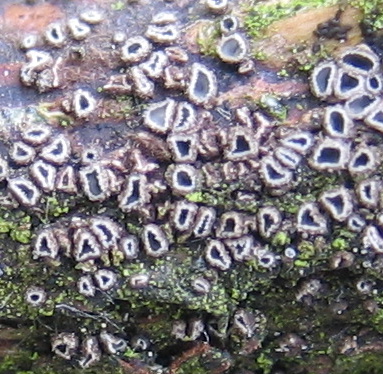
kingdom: Fungi
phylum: Ascomycota
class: Leotiomycetes
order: Helotiales
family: Mollisiaceae
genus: Mollisia
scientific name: Mollisia rosae
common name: rose-gråskive
